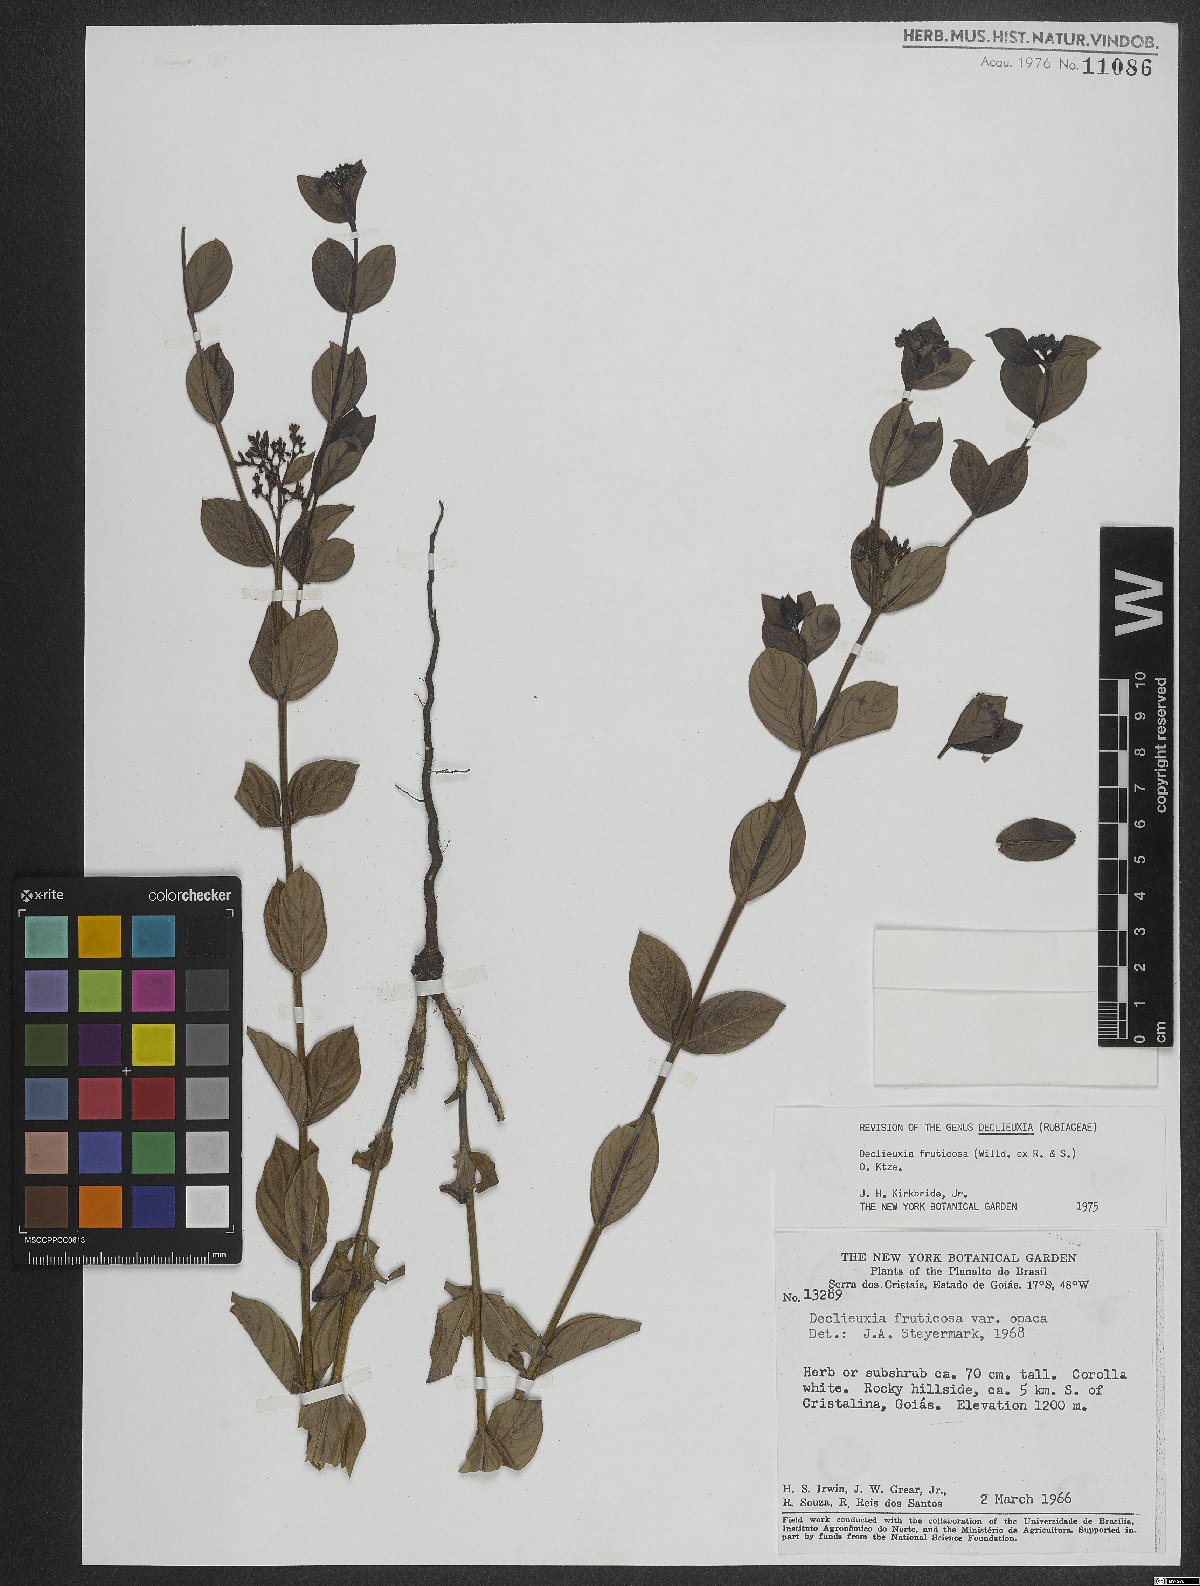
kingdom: Plantae
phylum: Tracheophyta
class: Magnoliopsida
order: Gentianales
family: Rubiaceae
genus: Declieuxia
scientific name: Declieuxia fruticosa
